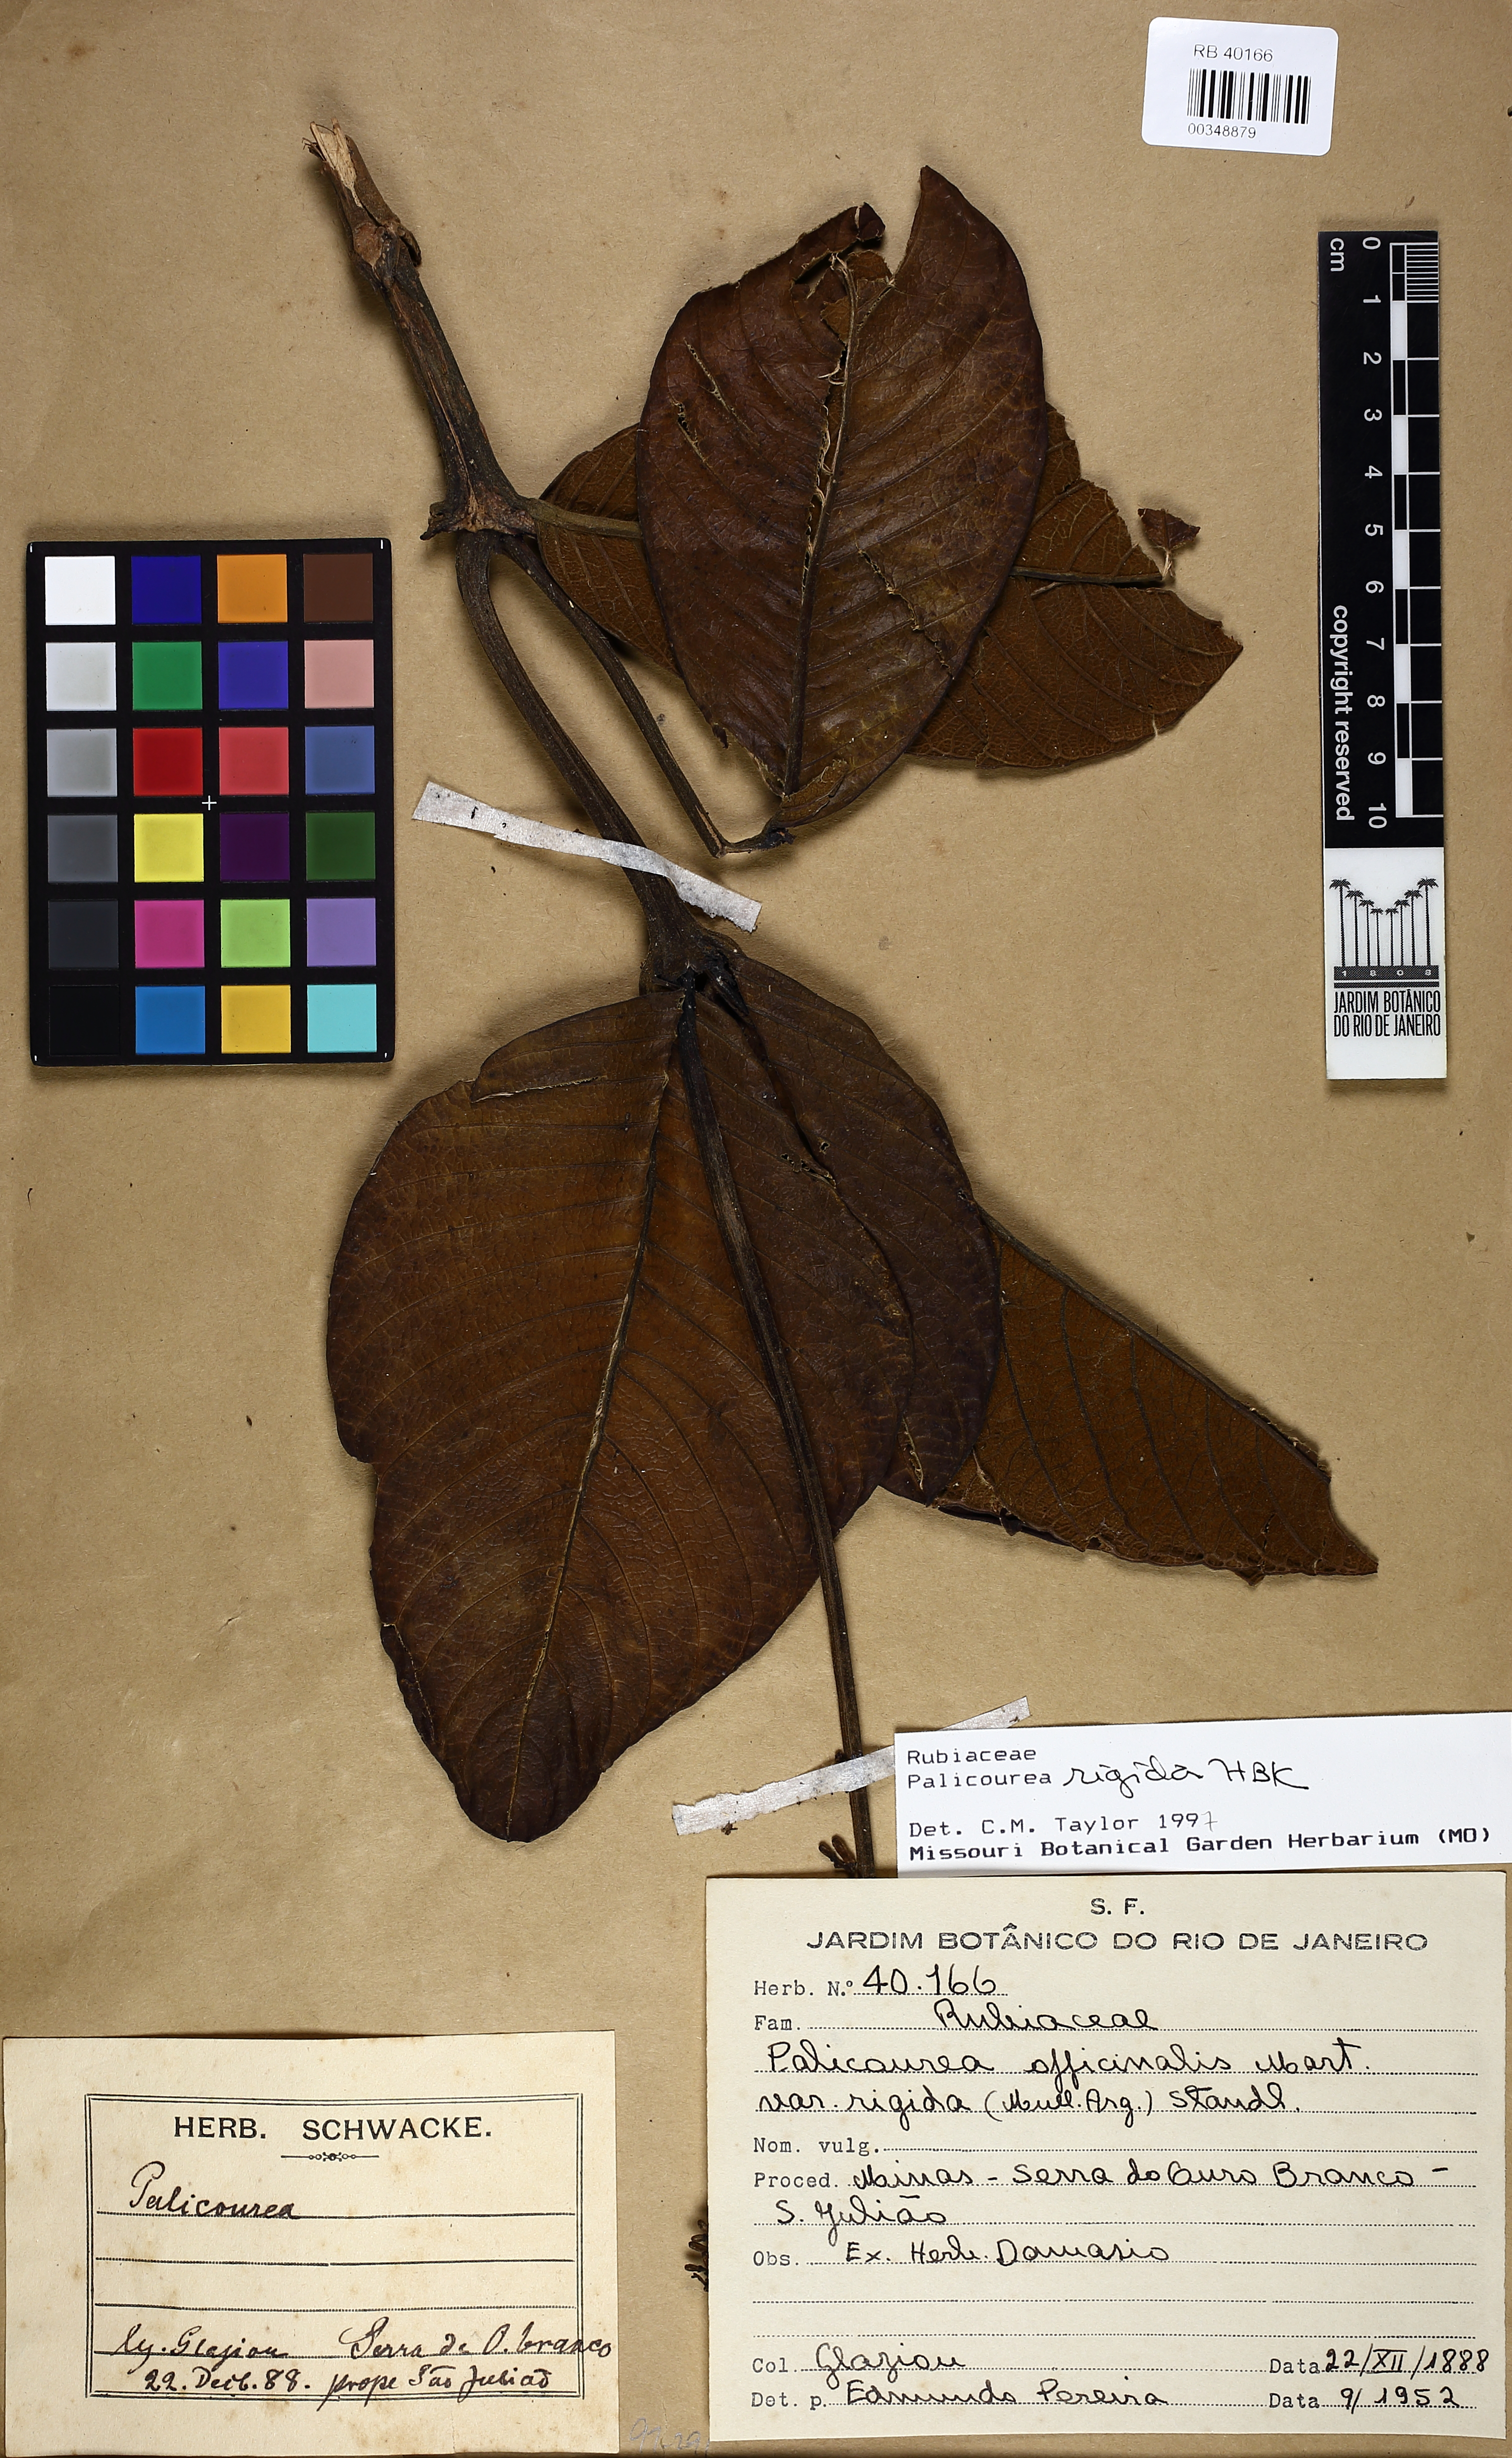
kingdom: Plantae
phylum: Tracheophyta
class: Magnoliopsida
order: Gentianales
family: Rubiaceae
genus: Palicourea
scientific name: Palicourea rigida
